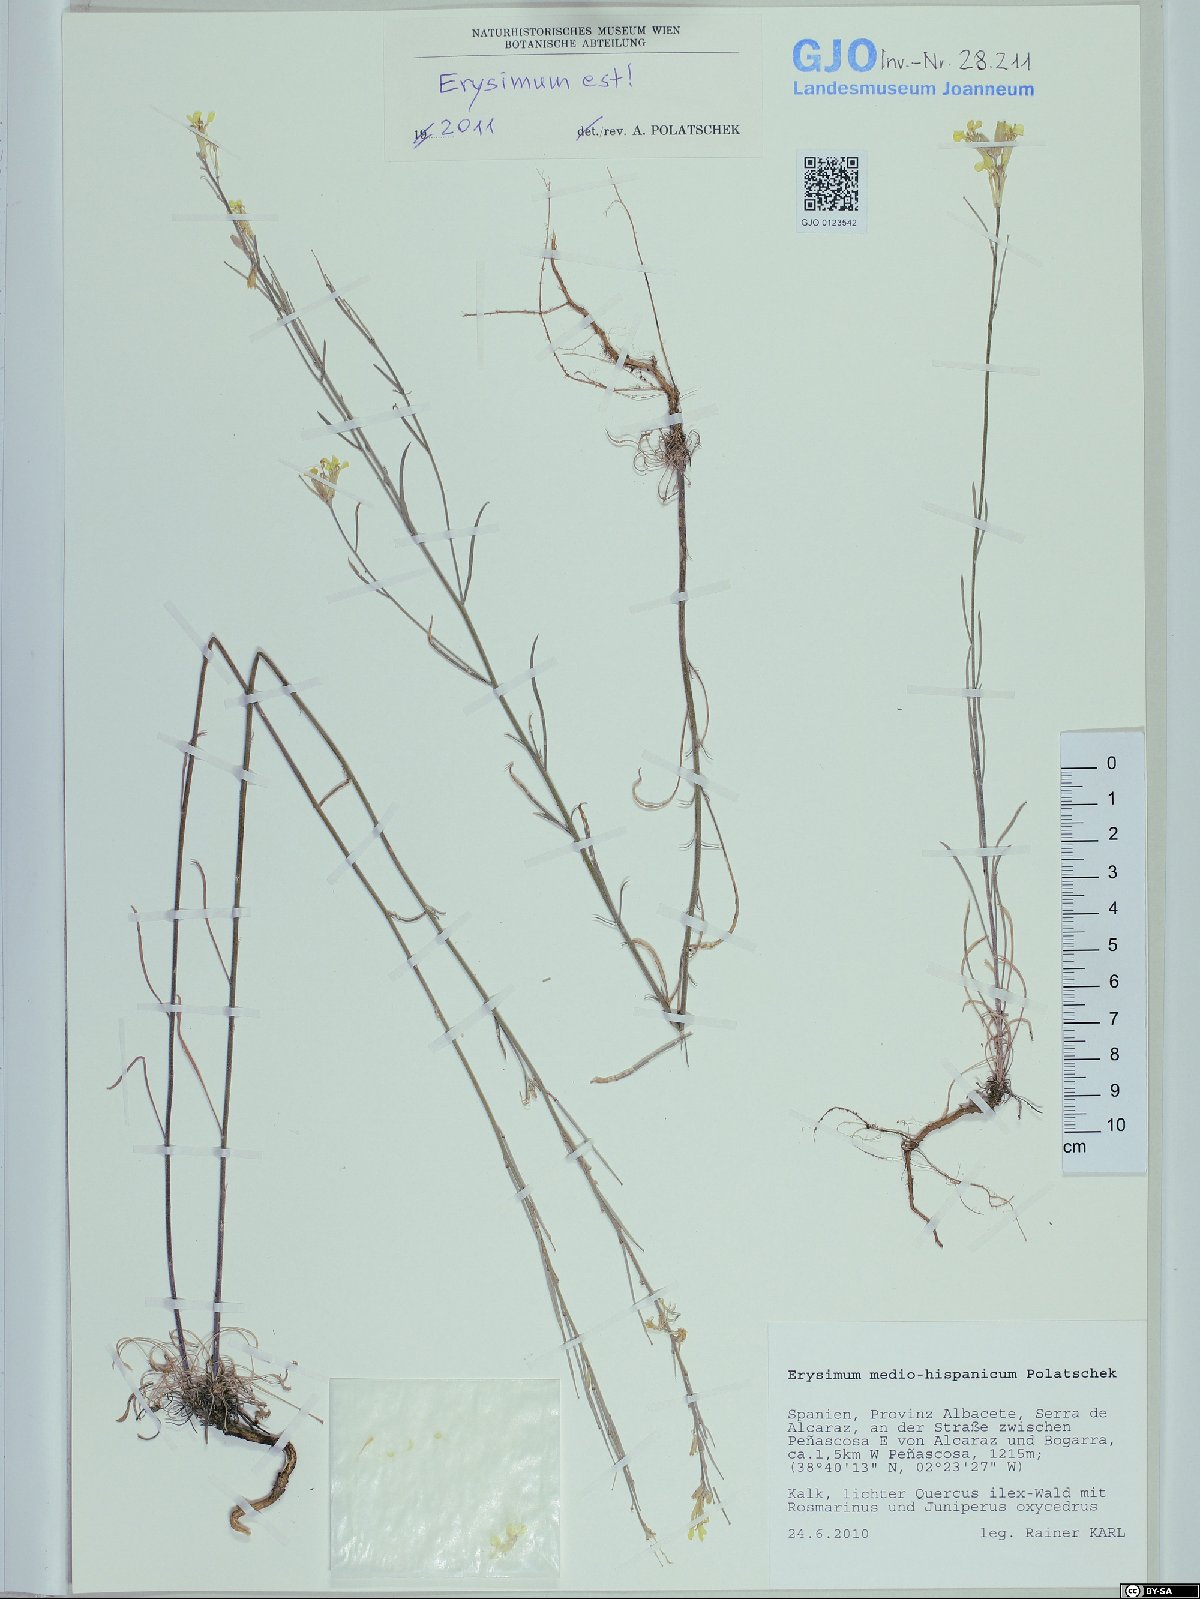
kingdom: Plantae
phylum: Tracheophyta
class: Magnoliopsida
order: Brassicales
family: Brassicaceae
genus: Erysimum
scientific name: Erysimum nevadense
